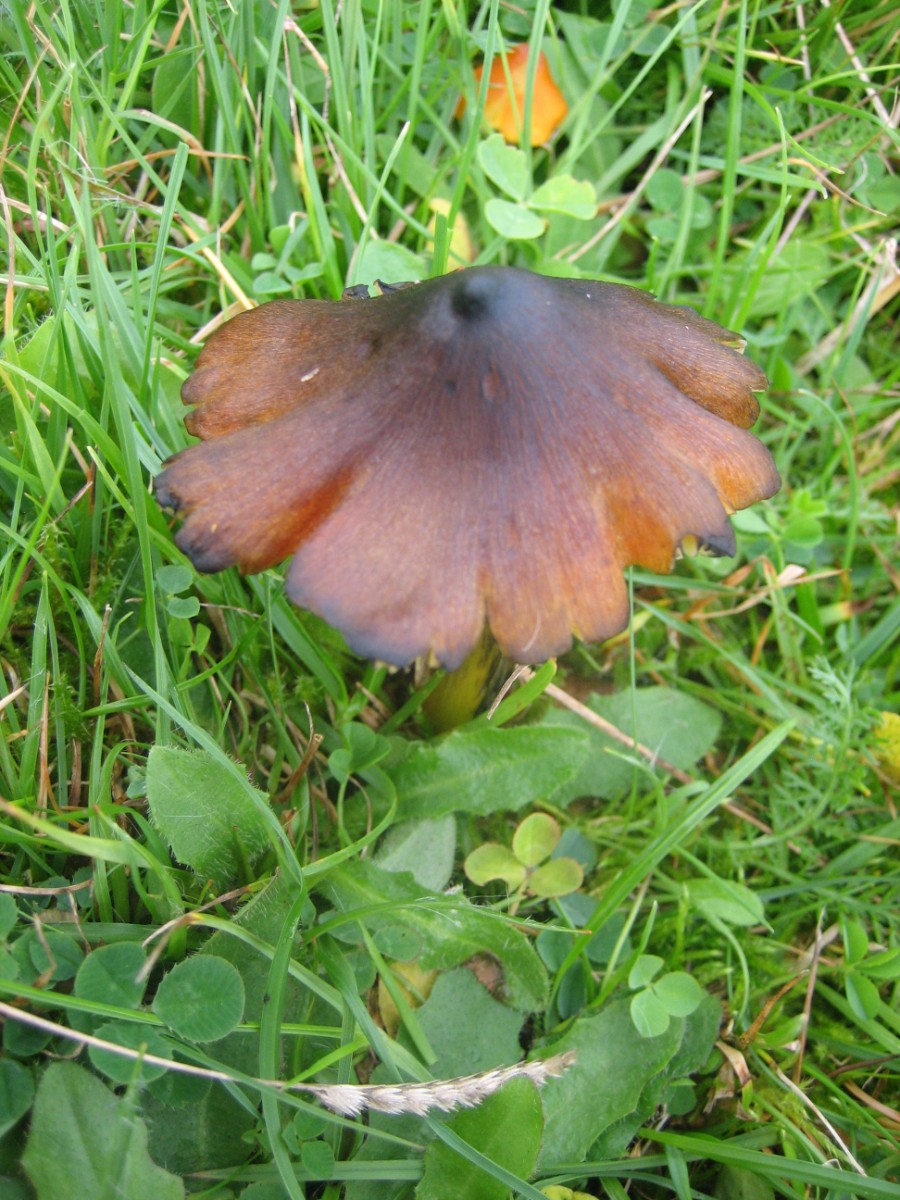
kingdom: Fungi
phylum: Basidiomycota
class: Agaricomycetes
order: Agaricales
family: Hygrophoraceae
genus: Hygrocybe
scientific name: Hygrocybe conica
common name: kegle-vokshat
